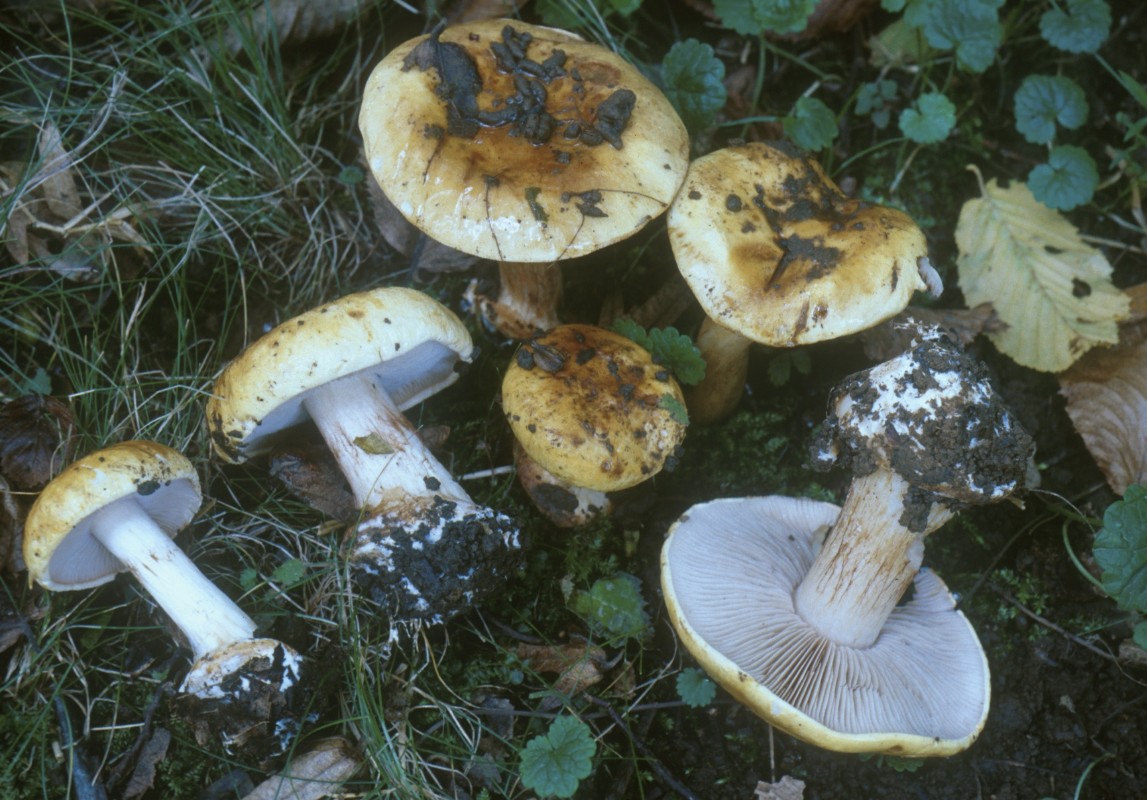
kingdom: Fungi
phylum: Basidiomycota
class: Agaricomycetes
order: Agaricales
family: Cortinariaceae
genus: Calonarius
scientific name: Calonarius chailluzii
